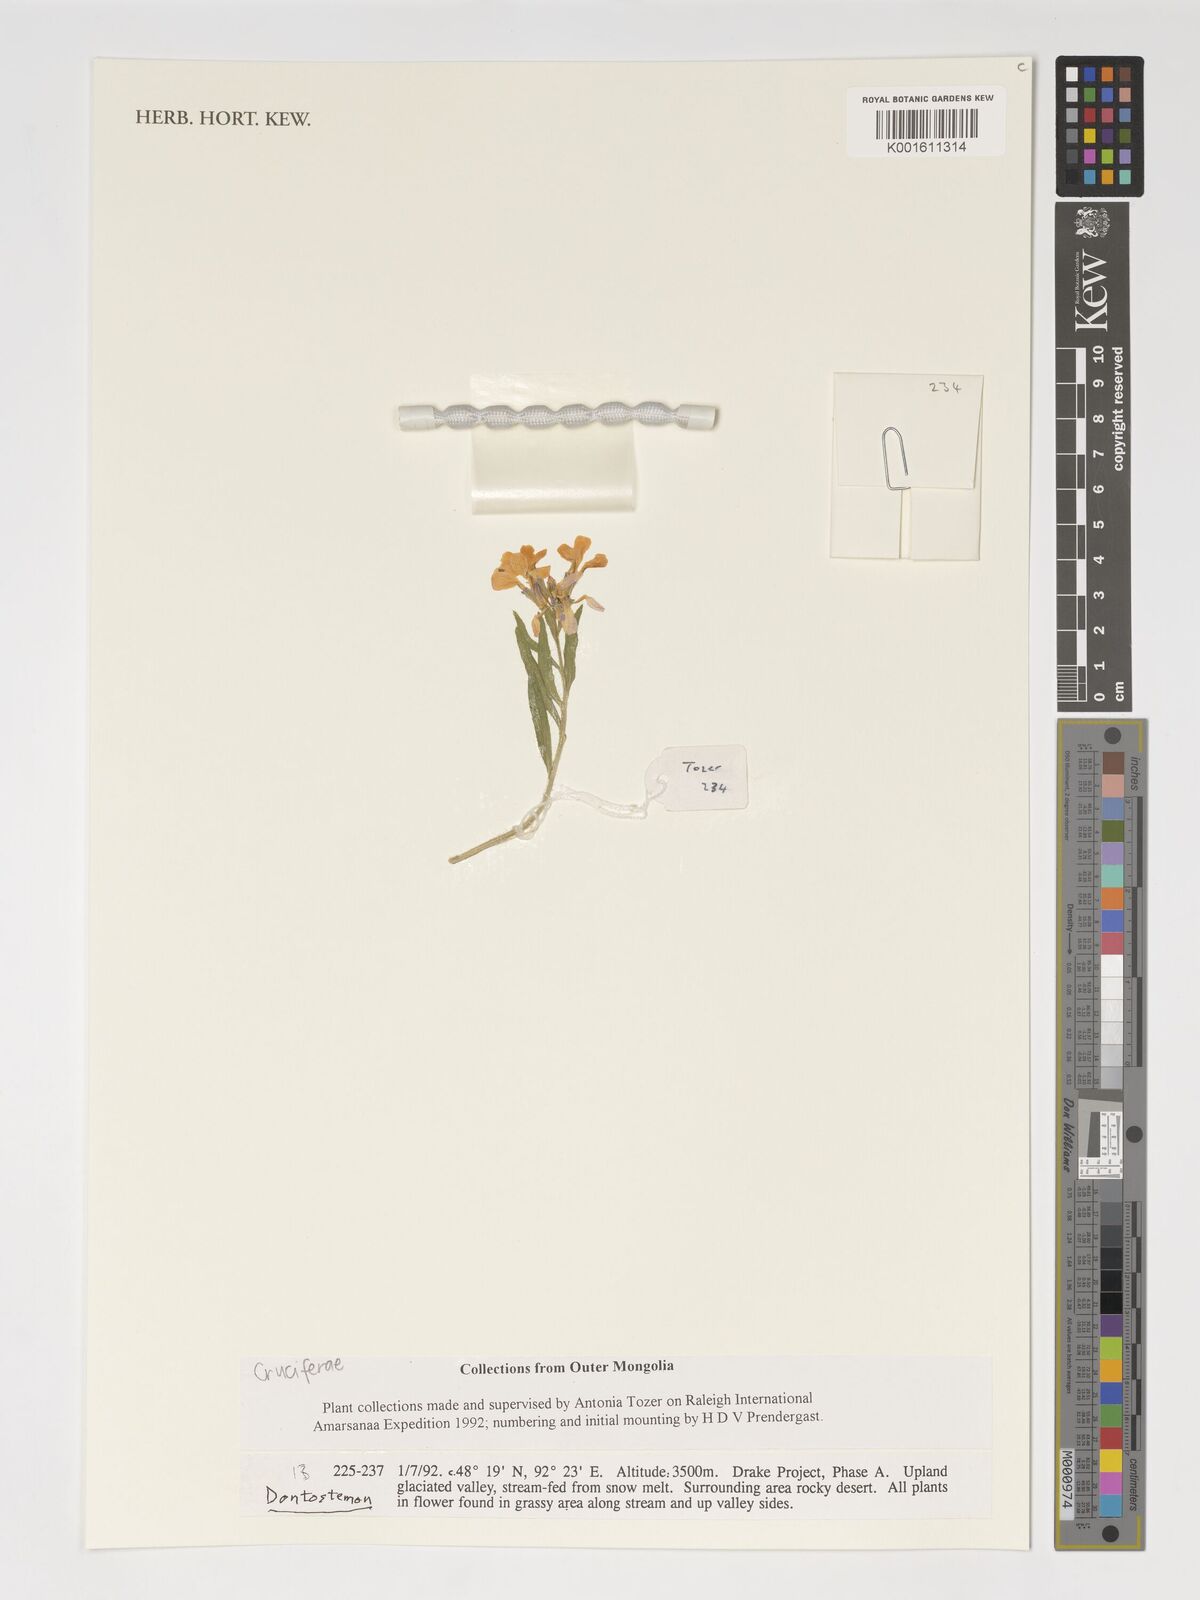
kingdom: Plantae
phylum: Tracheophyta
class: Magnoliopsida
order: Brassicales
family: Brassicaceae
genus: Dontostemon
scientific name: Dontostemon
